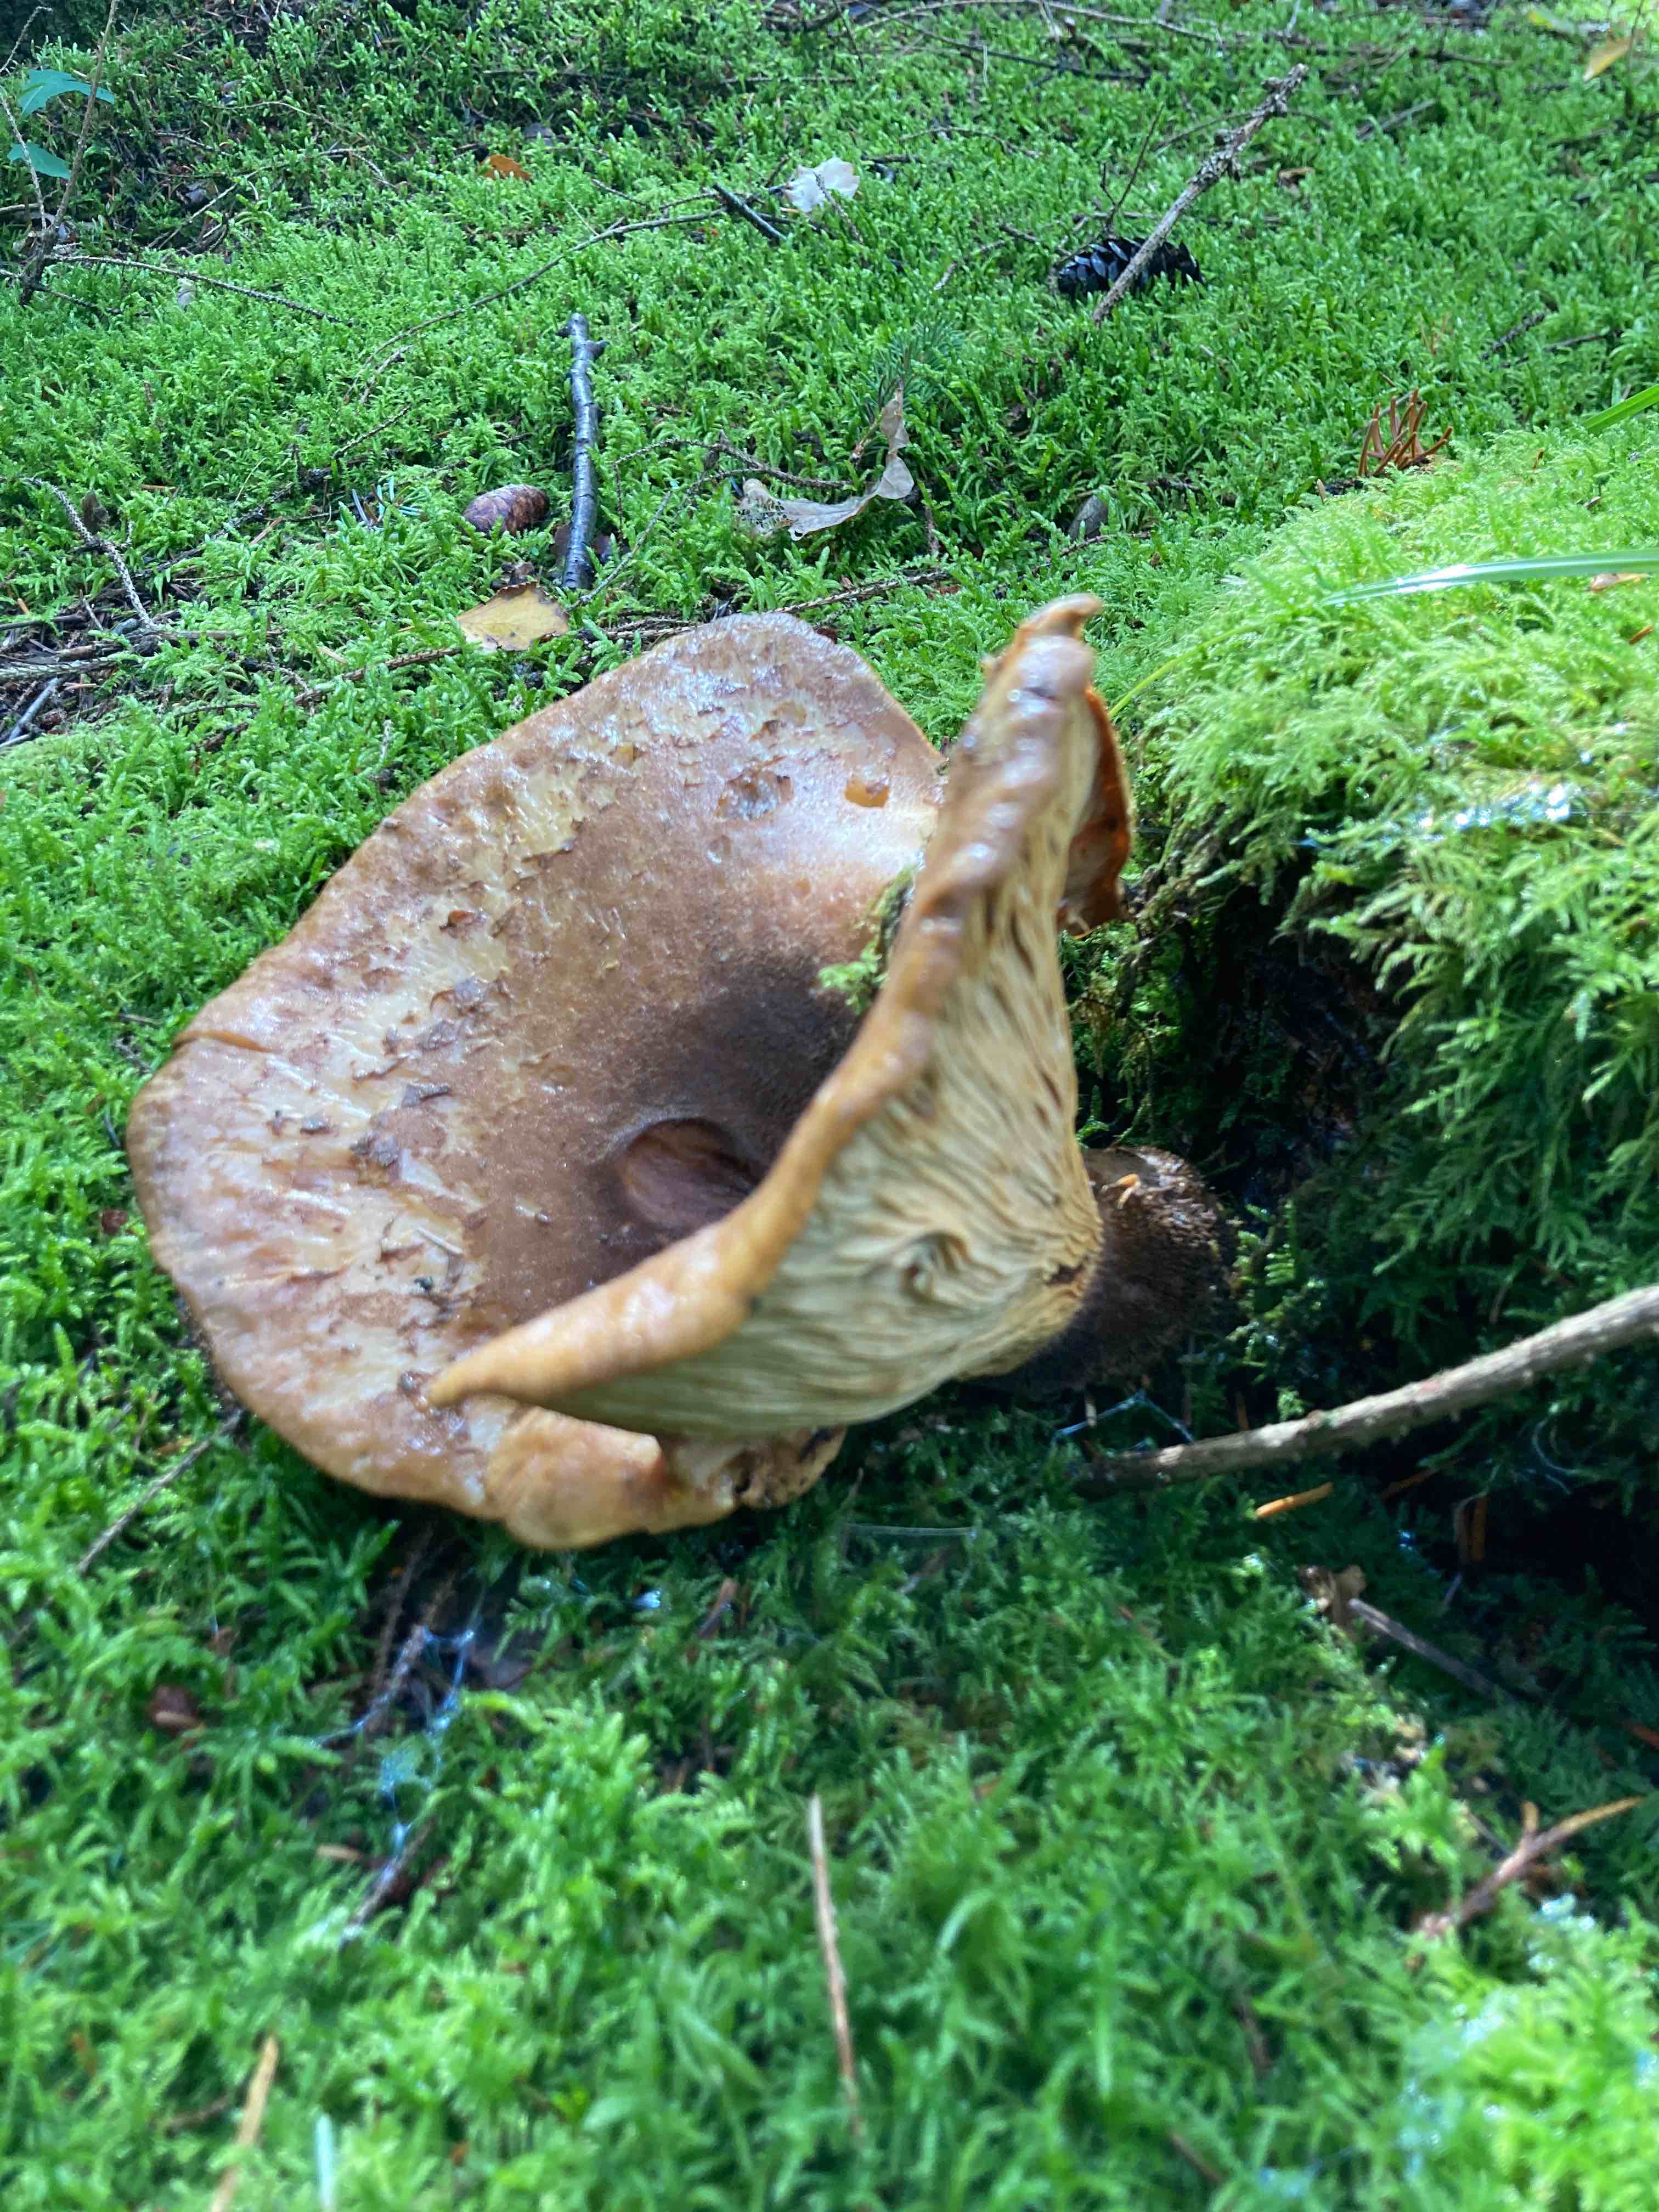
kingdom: Fungi
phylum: Basidiomycota
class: Agaricomycetes
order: Boletales
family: Tapinellaceae
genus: Tapinella
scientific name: Tapinella atrotomentosa
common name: sortfiltet viftesvamp
